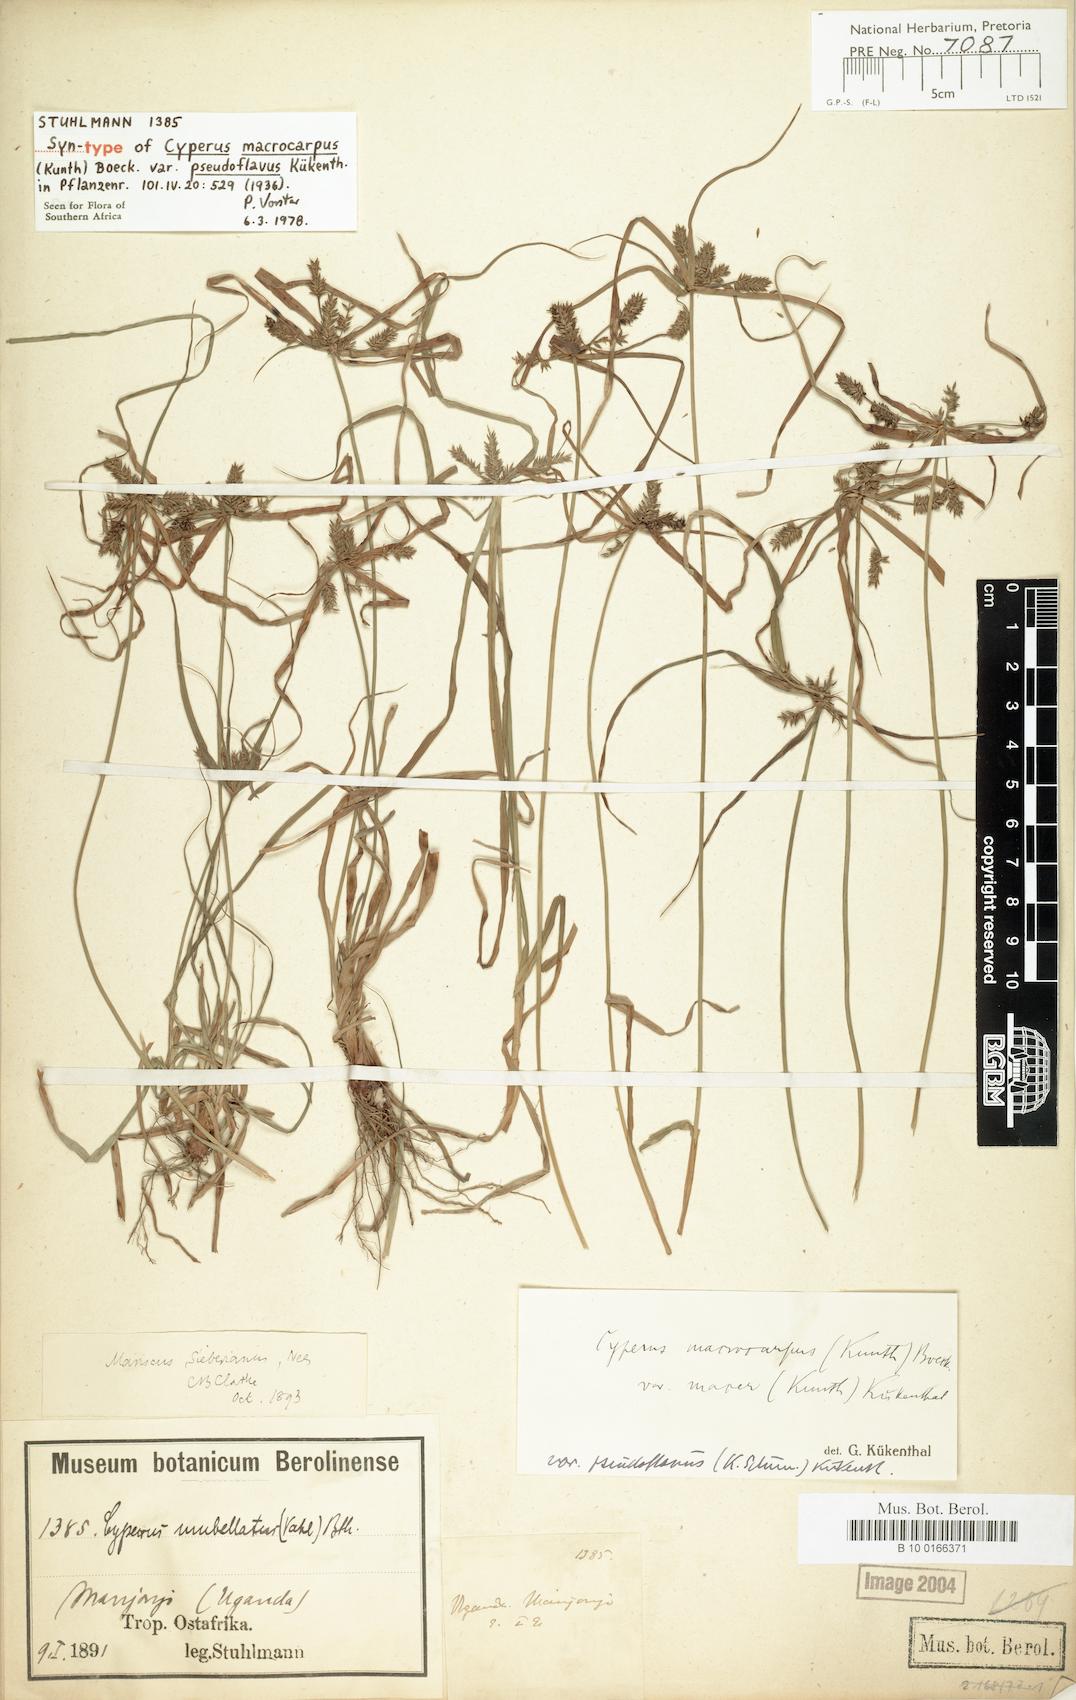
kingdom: Plantae
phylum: Tracheophyta
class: Liliopsida
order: Poales
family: Cyperaceae
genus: Cyperus
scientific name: Cyperus pseudoflavus
